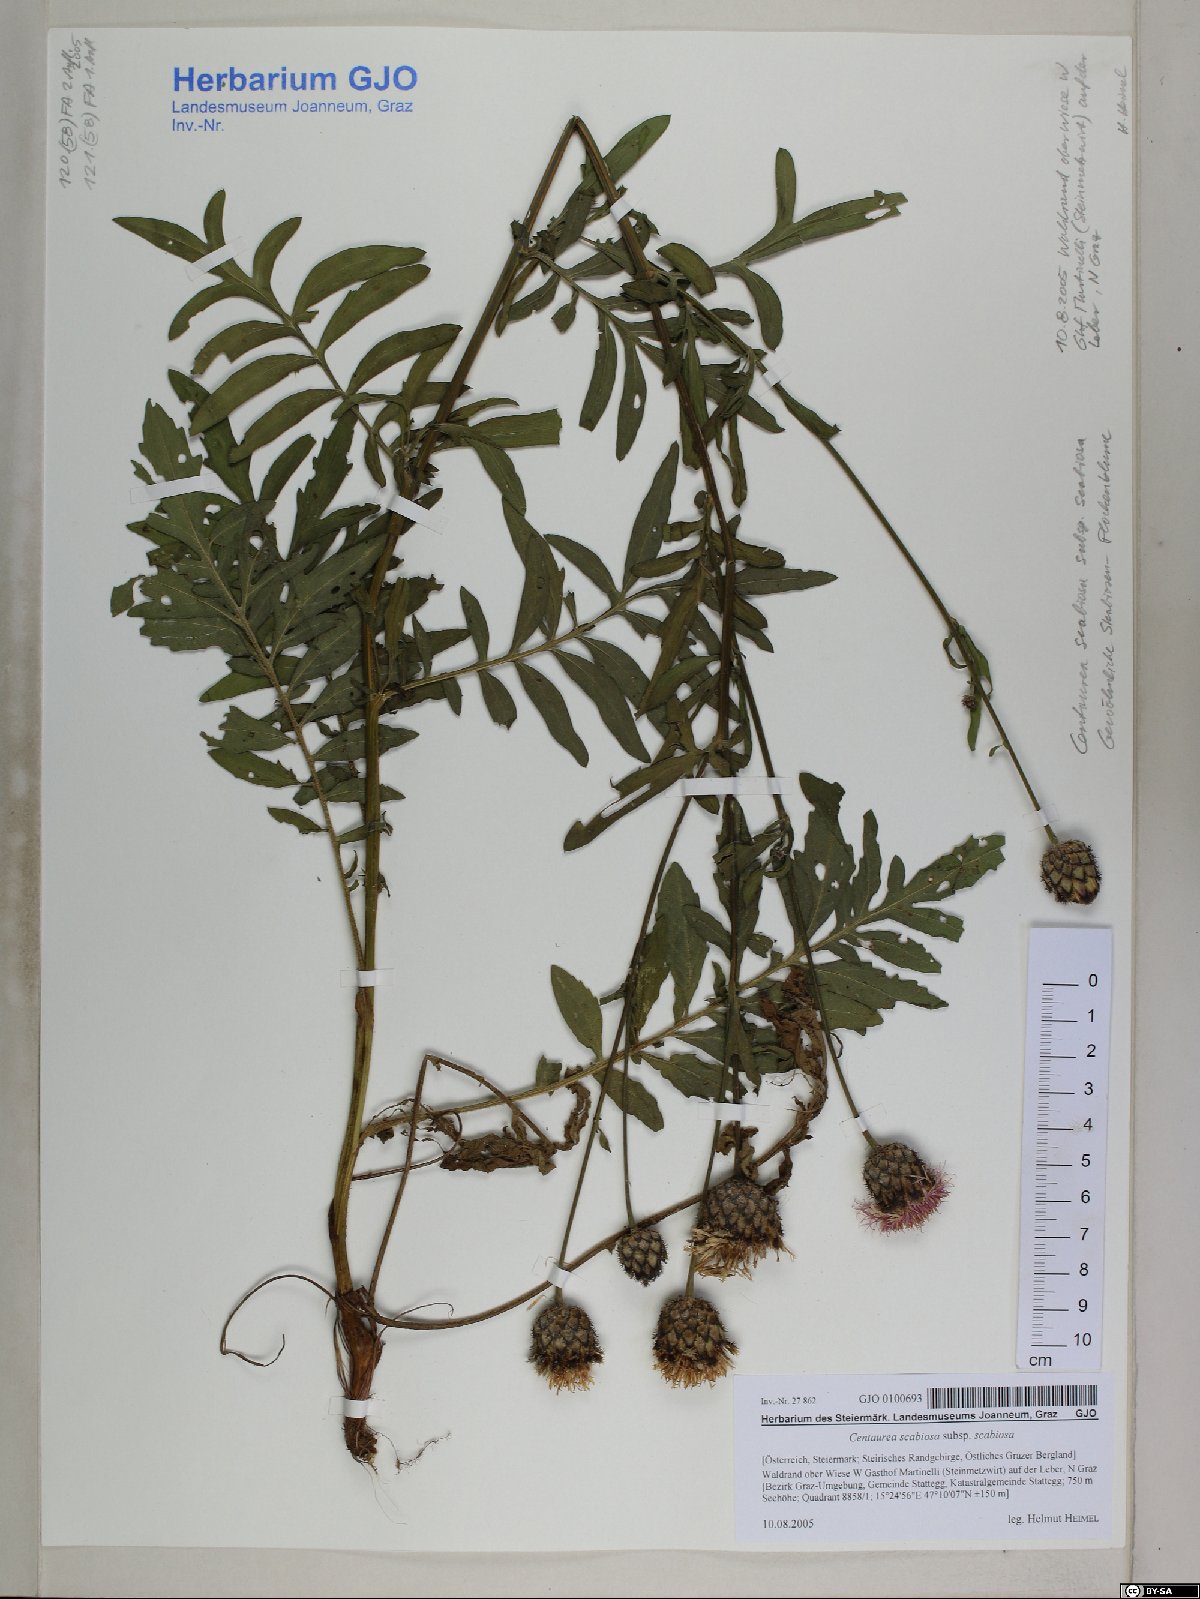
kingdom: Plantae
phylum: Tracheophyta
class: Magnoliopsida
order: Asterales
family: Asteraceae
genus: Centaurea
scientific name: Centaurea scabiosa
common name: Greater knapweed
